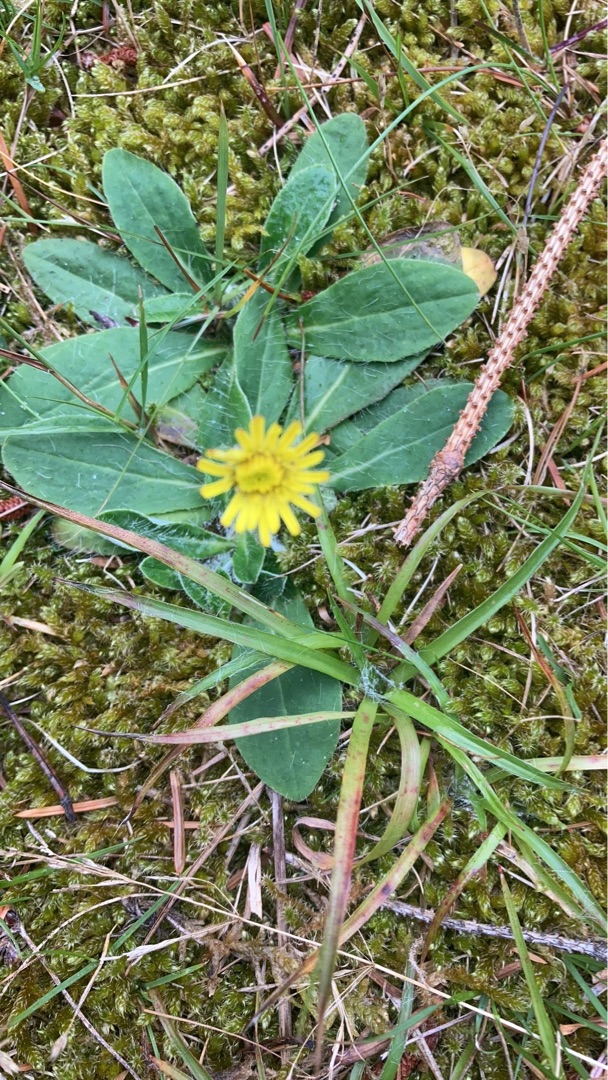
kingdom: Plantae
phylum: Tracheophyta
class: Magnoliopsida
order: Asterales
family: Asteraceae
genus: Pilosella
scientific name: Pilosella officinarum
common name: Håret høgeurt
